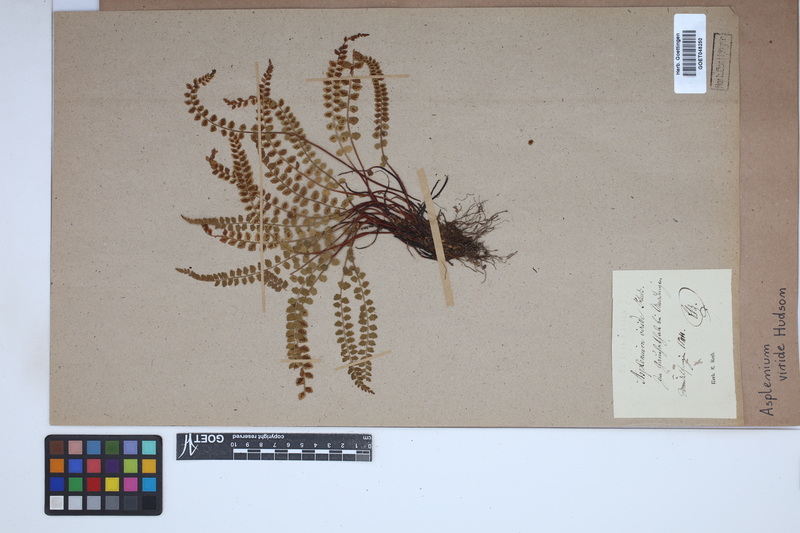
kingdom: Plantae
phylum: Tracheophyta
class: Polypodiopsida
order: Polypodiales
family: Aspleniaceae
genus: Asplenium
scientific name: Asplenium viride
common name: Green spleenwort
